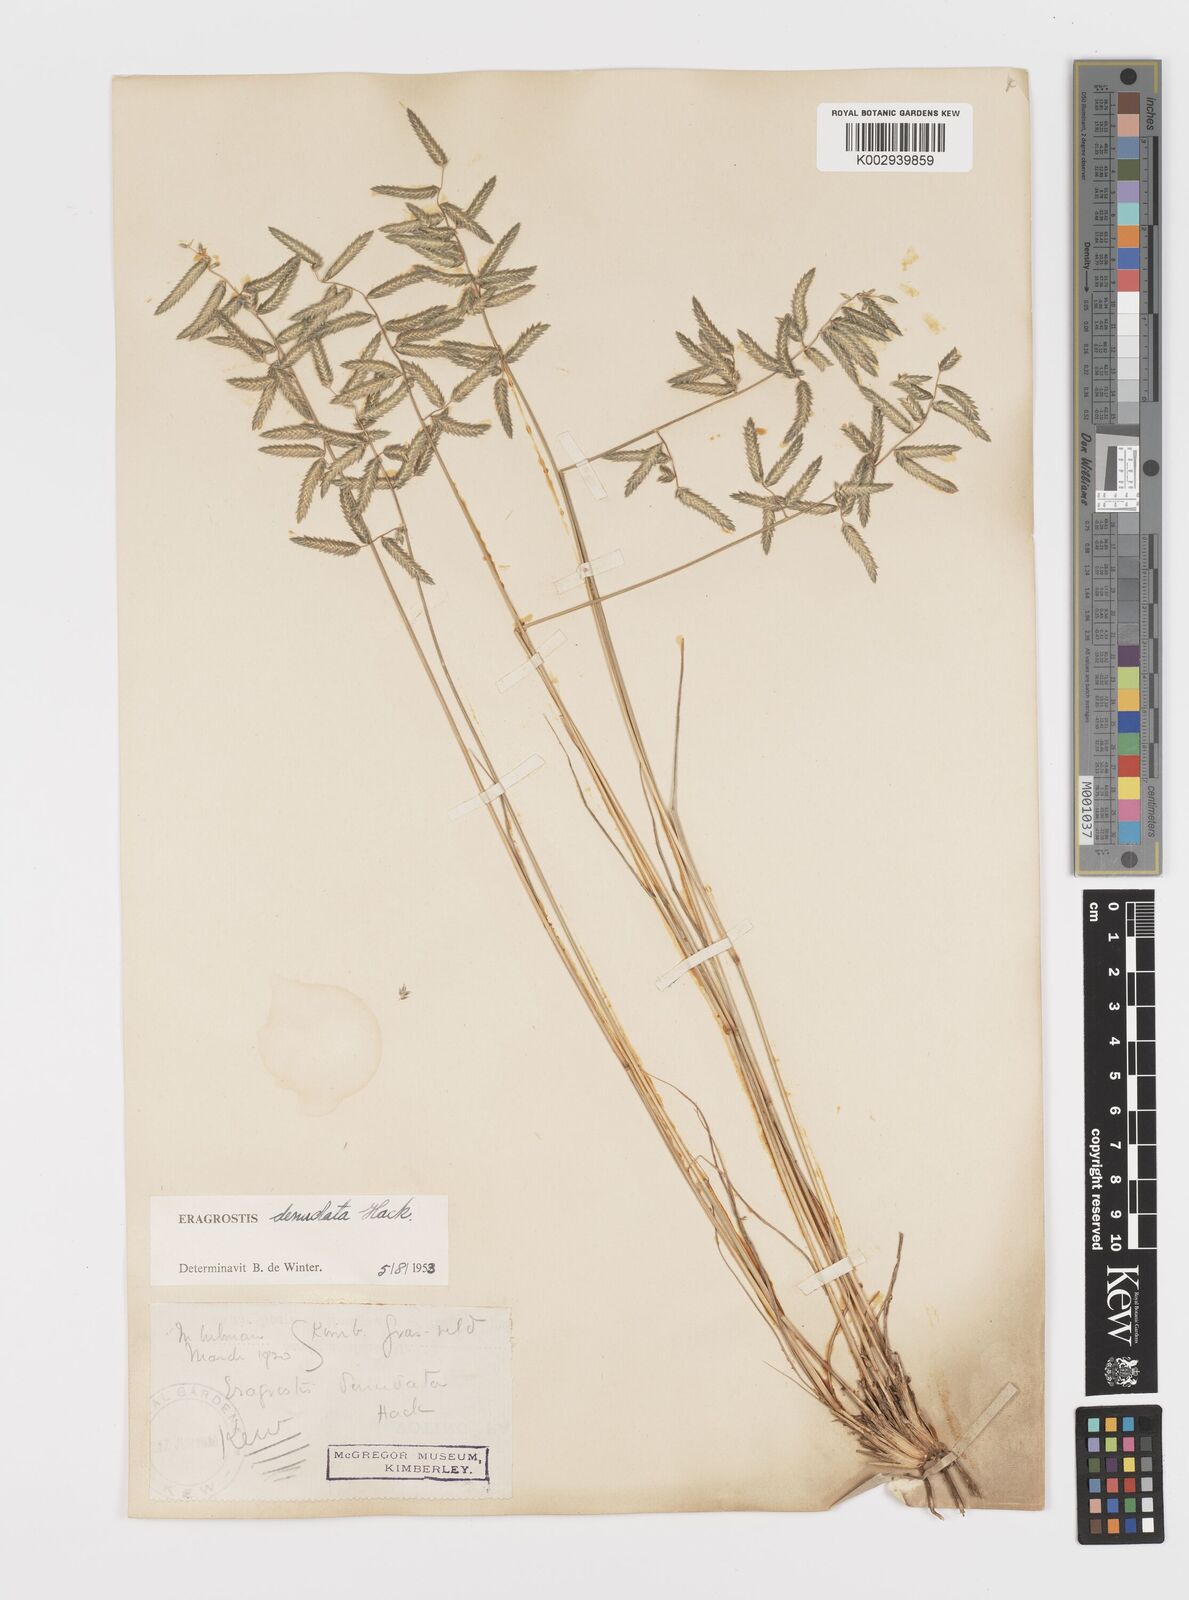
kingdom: Plantae
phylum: Tracheophyta
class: Liliopsida
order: Poales
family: Poaceae
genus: Eragrostis
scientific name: Eragrostis nindensis
